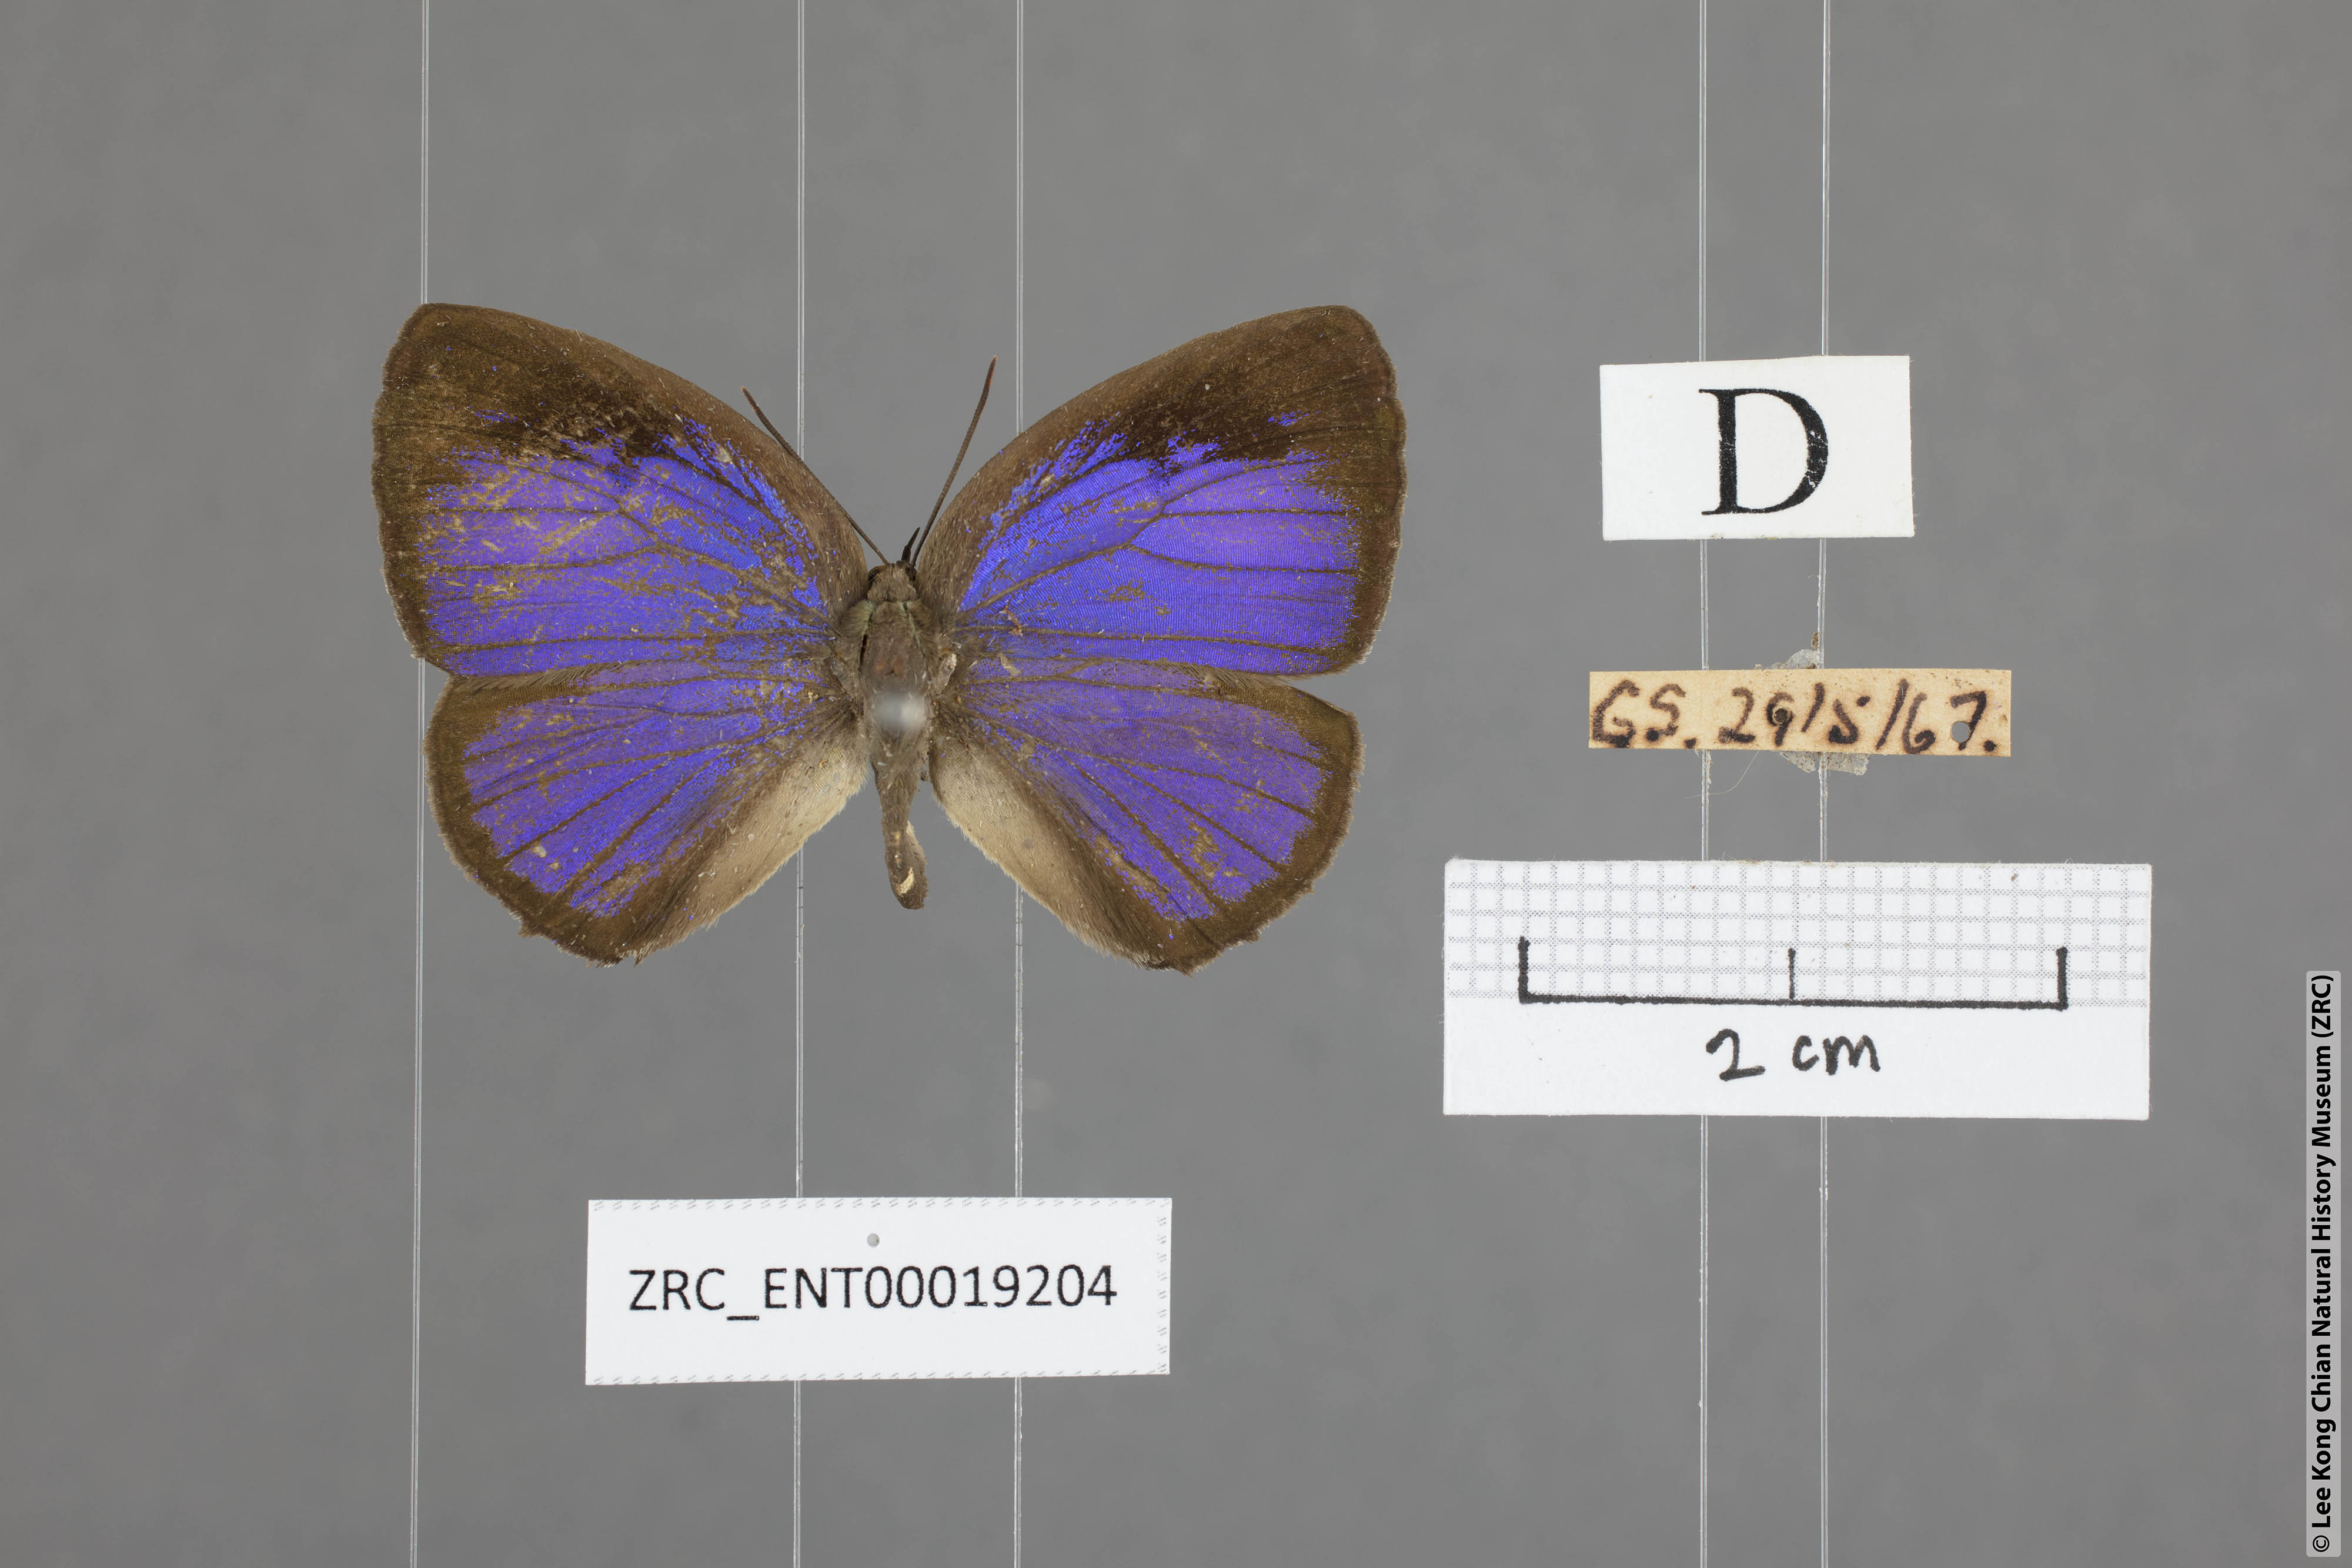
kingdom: Animalia
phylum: Arthropoda
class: Insecta
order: Lepidoptera
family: Lycaenidae
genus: Arhopala
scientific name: Arhopala arvina
